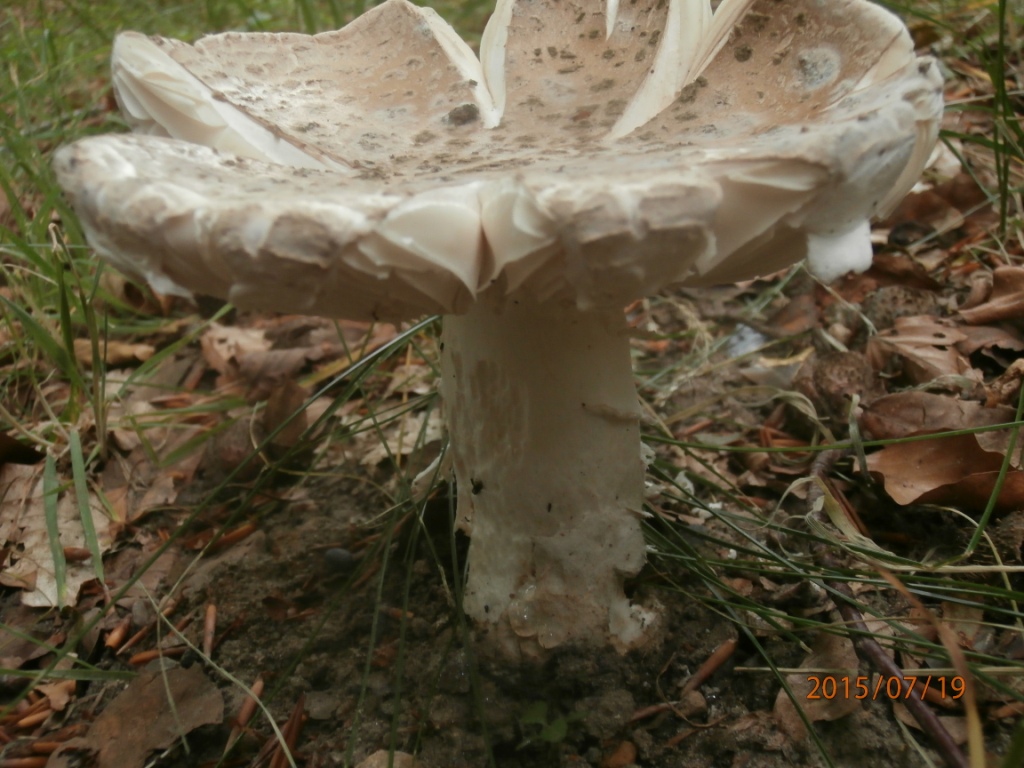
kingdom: Fungi
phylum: Basidiomycota
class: Agaricomycetes
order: Agaricales
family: Amanitaceae
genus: Amanita
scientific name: Amanita
